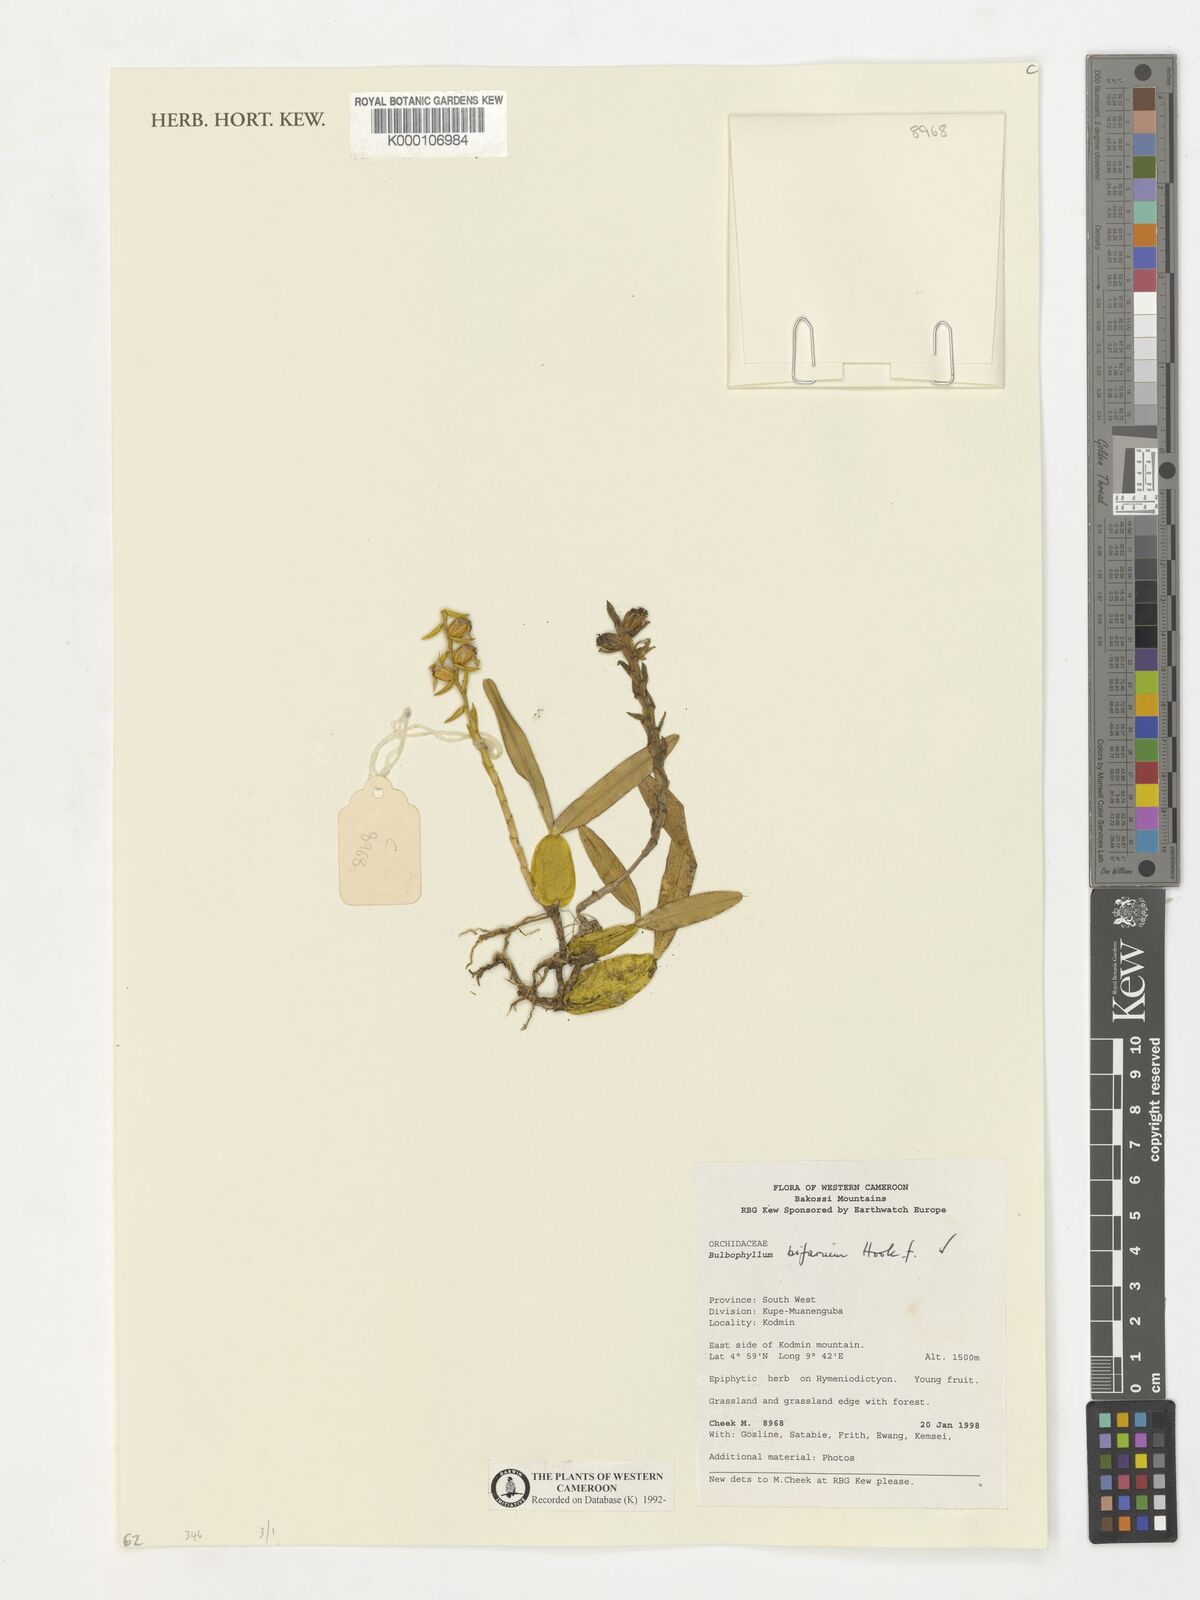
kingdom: Plantae
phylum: Tracheophyta
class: Liliopsida
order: Asparagales
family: Orchidaceae
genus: Bulbophyllum
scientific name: Bulbophyllum bifarium
